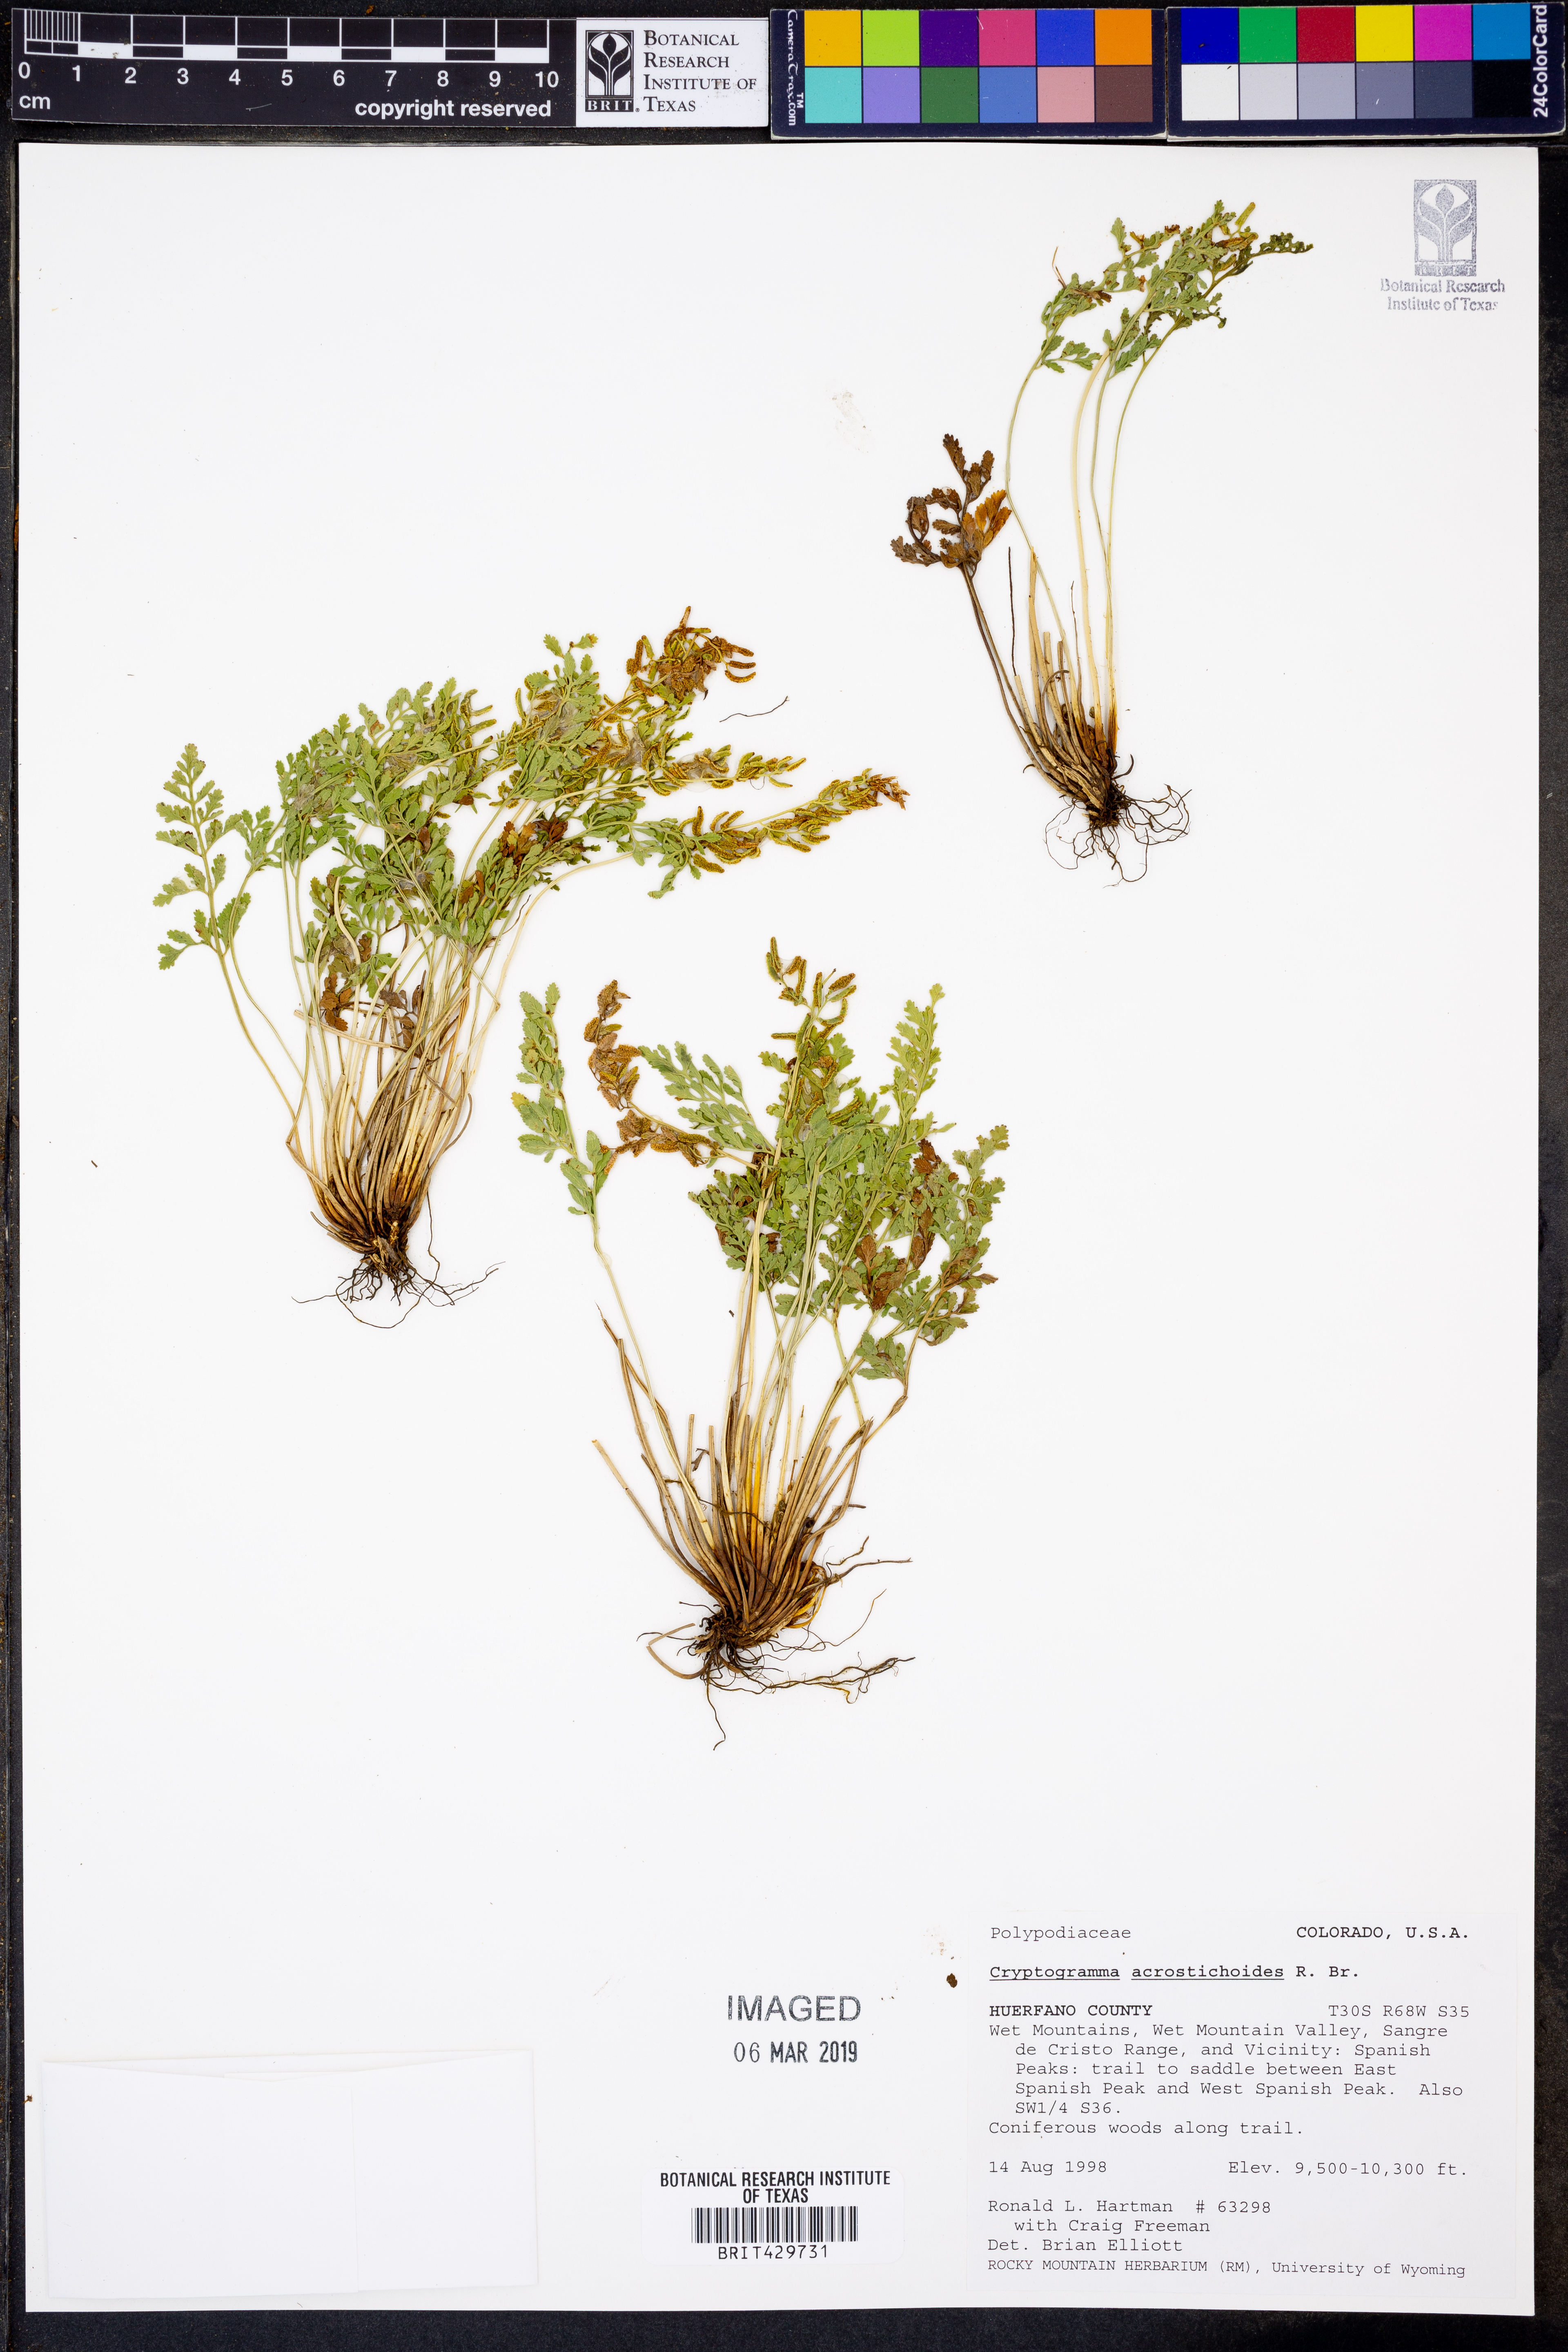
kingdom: Plantae
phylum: Tracheophyta
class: Polypodiopsida
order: Polypodiales
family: Pteridaceae
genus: Cryptogramma
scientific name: Cryptogramma acrostichoides
